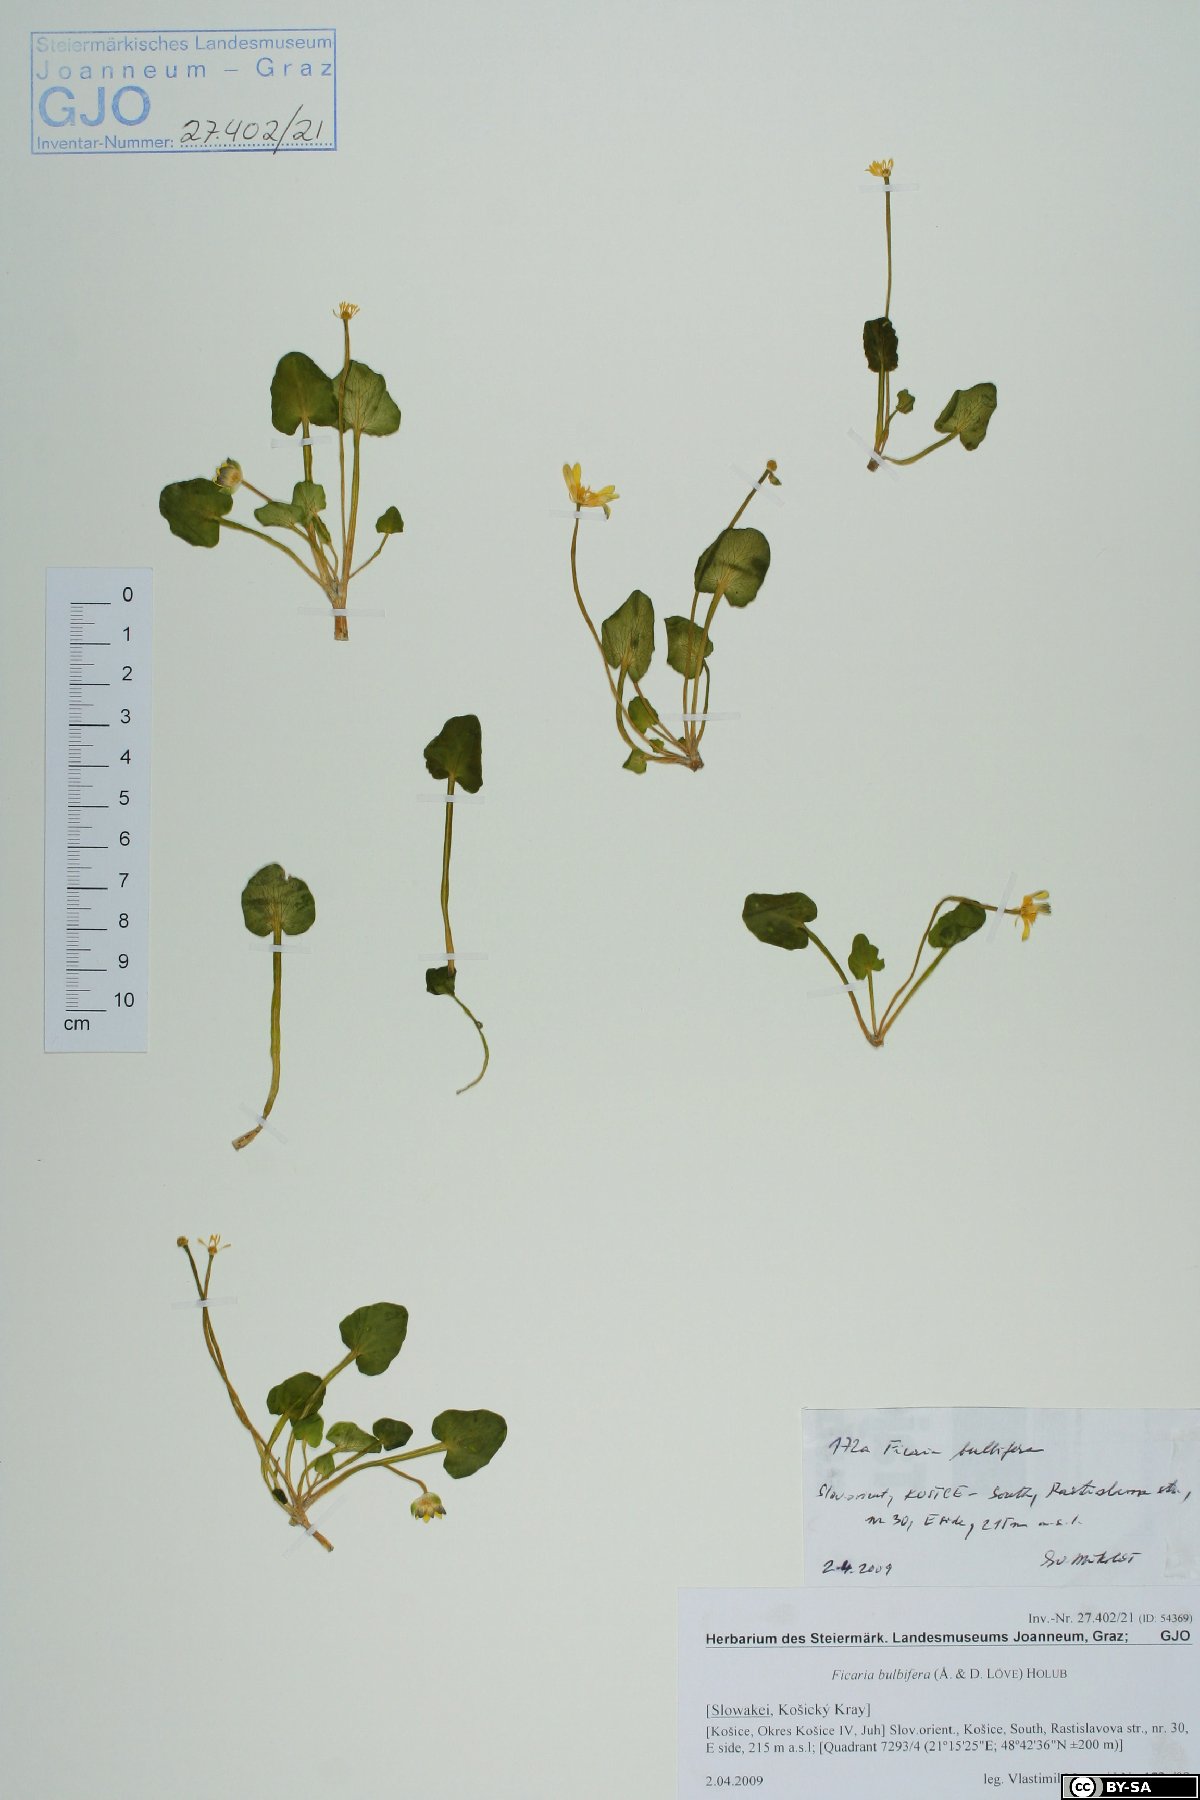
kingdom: Plantae
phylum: Tracheophyta
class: Magnoliopsida
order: Ranunculales
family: Ranunculaceae
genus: Ficaria
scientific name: Ficaria verna
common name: Lesser celandine
